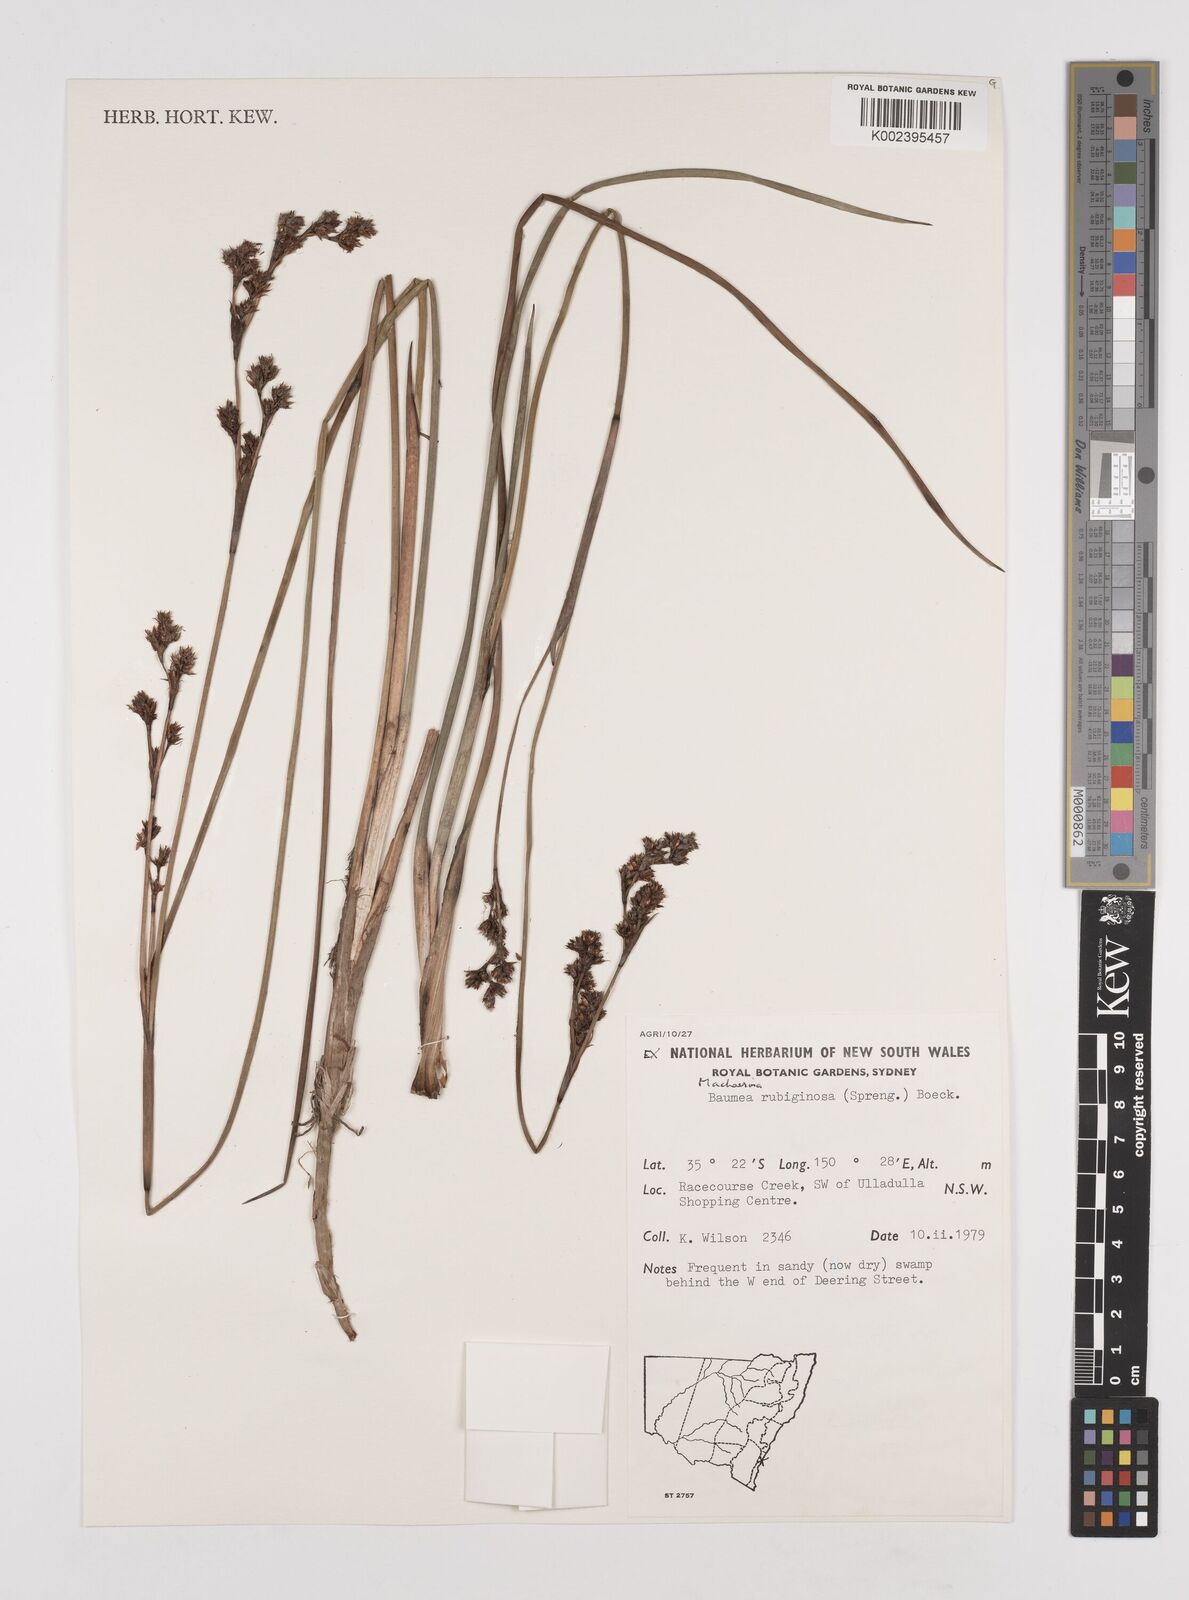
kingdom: Plantae
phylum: Tracheophyta
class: Liliopsida
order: Poales
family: Cyperaceae
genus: Machaerina
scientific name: Machaerina rubiginosa
